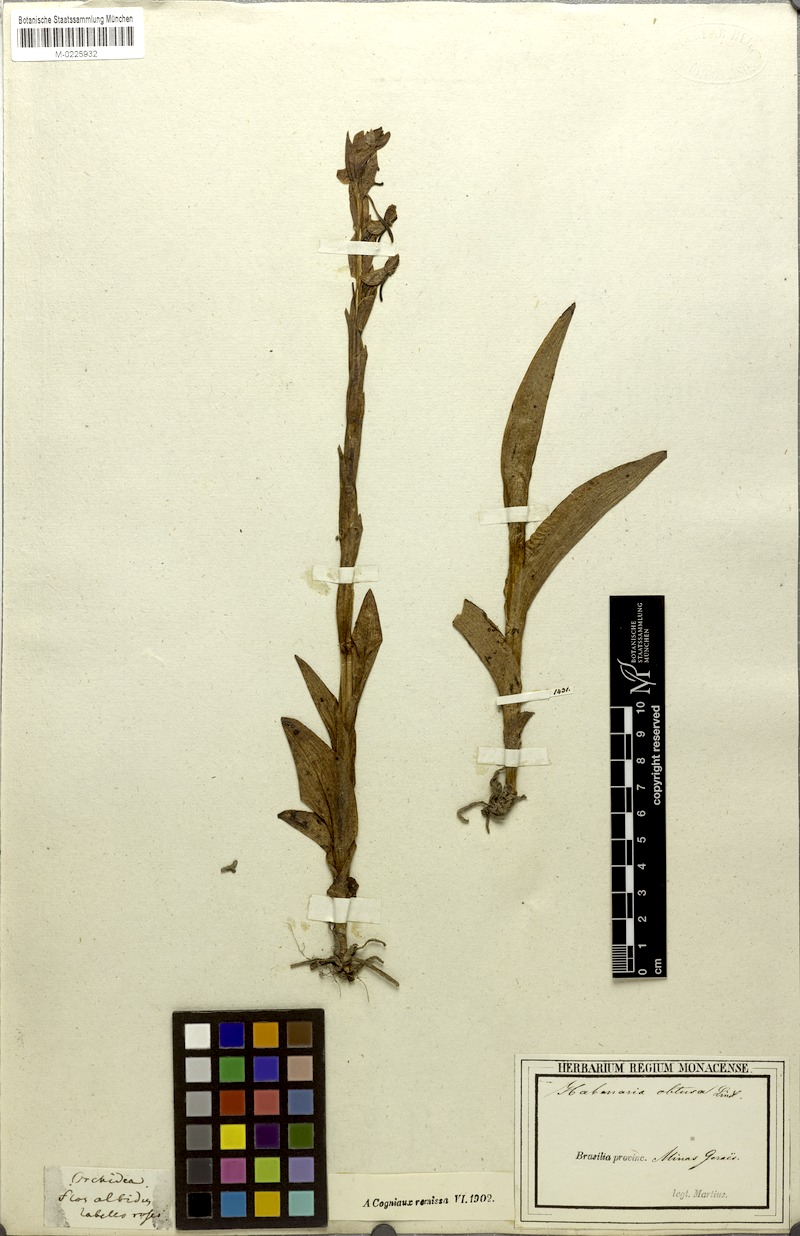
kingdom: Plantae
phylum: Tracheophyta
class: Liliopsida
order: Asparagales
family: Orchidaceae
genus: Habenaria
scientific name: Habenaria obtusa
